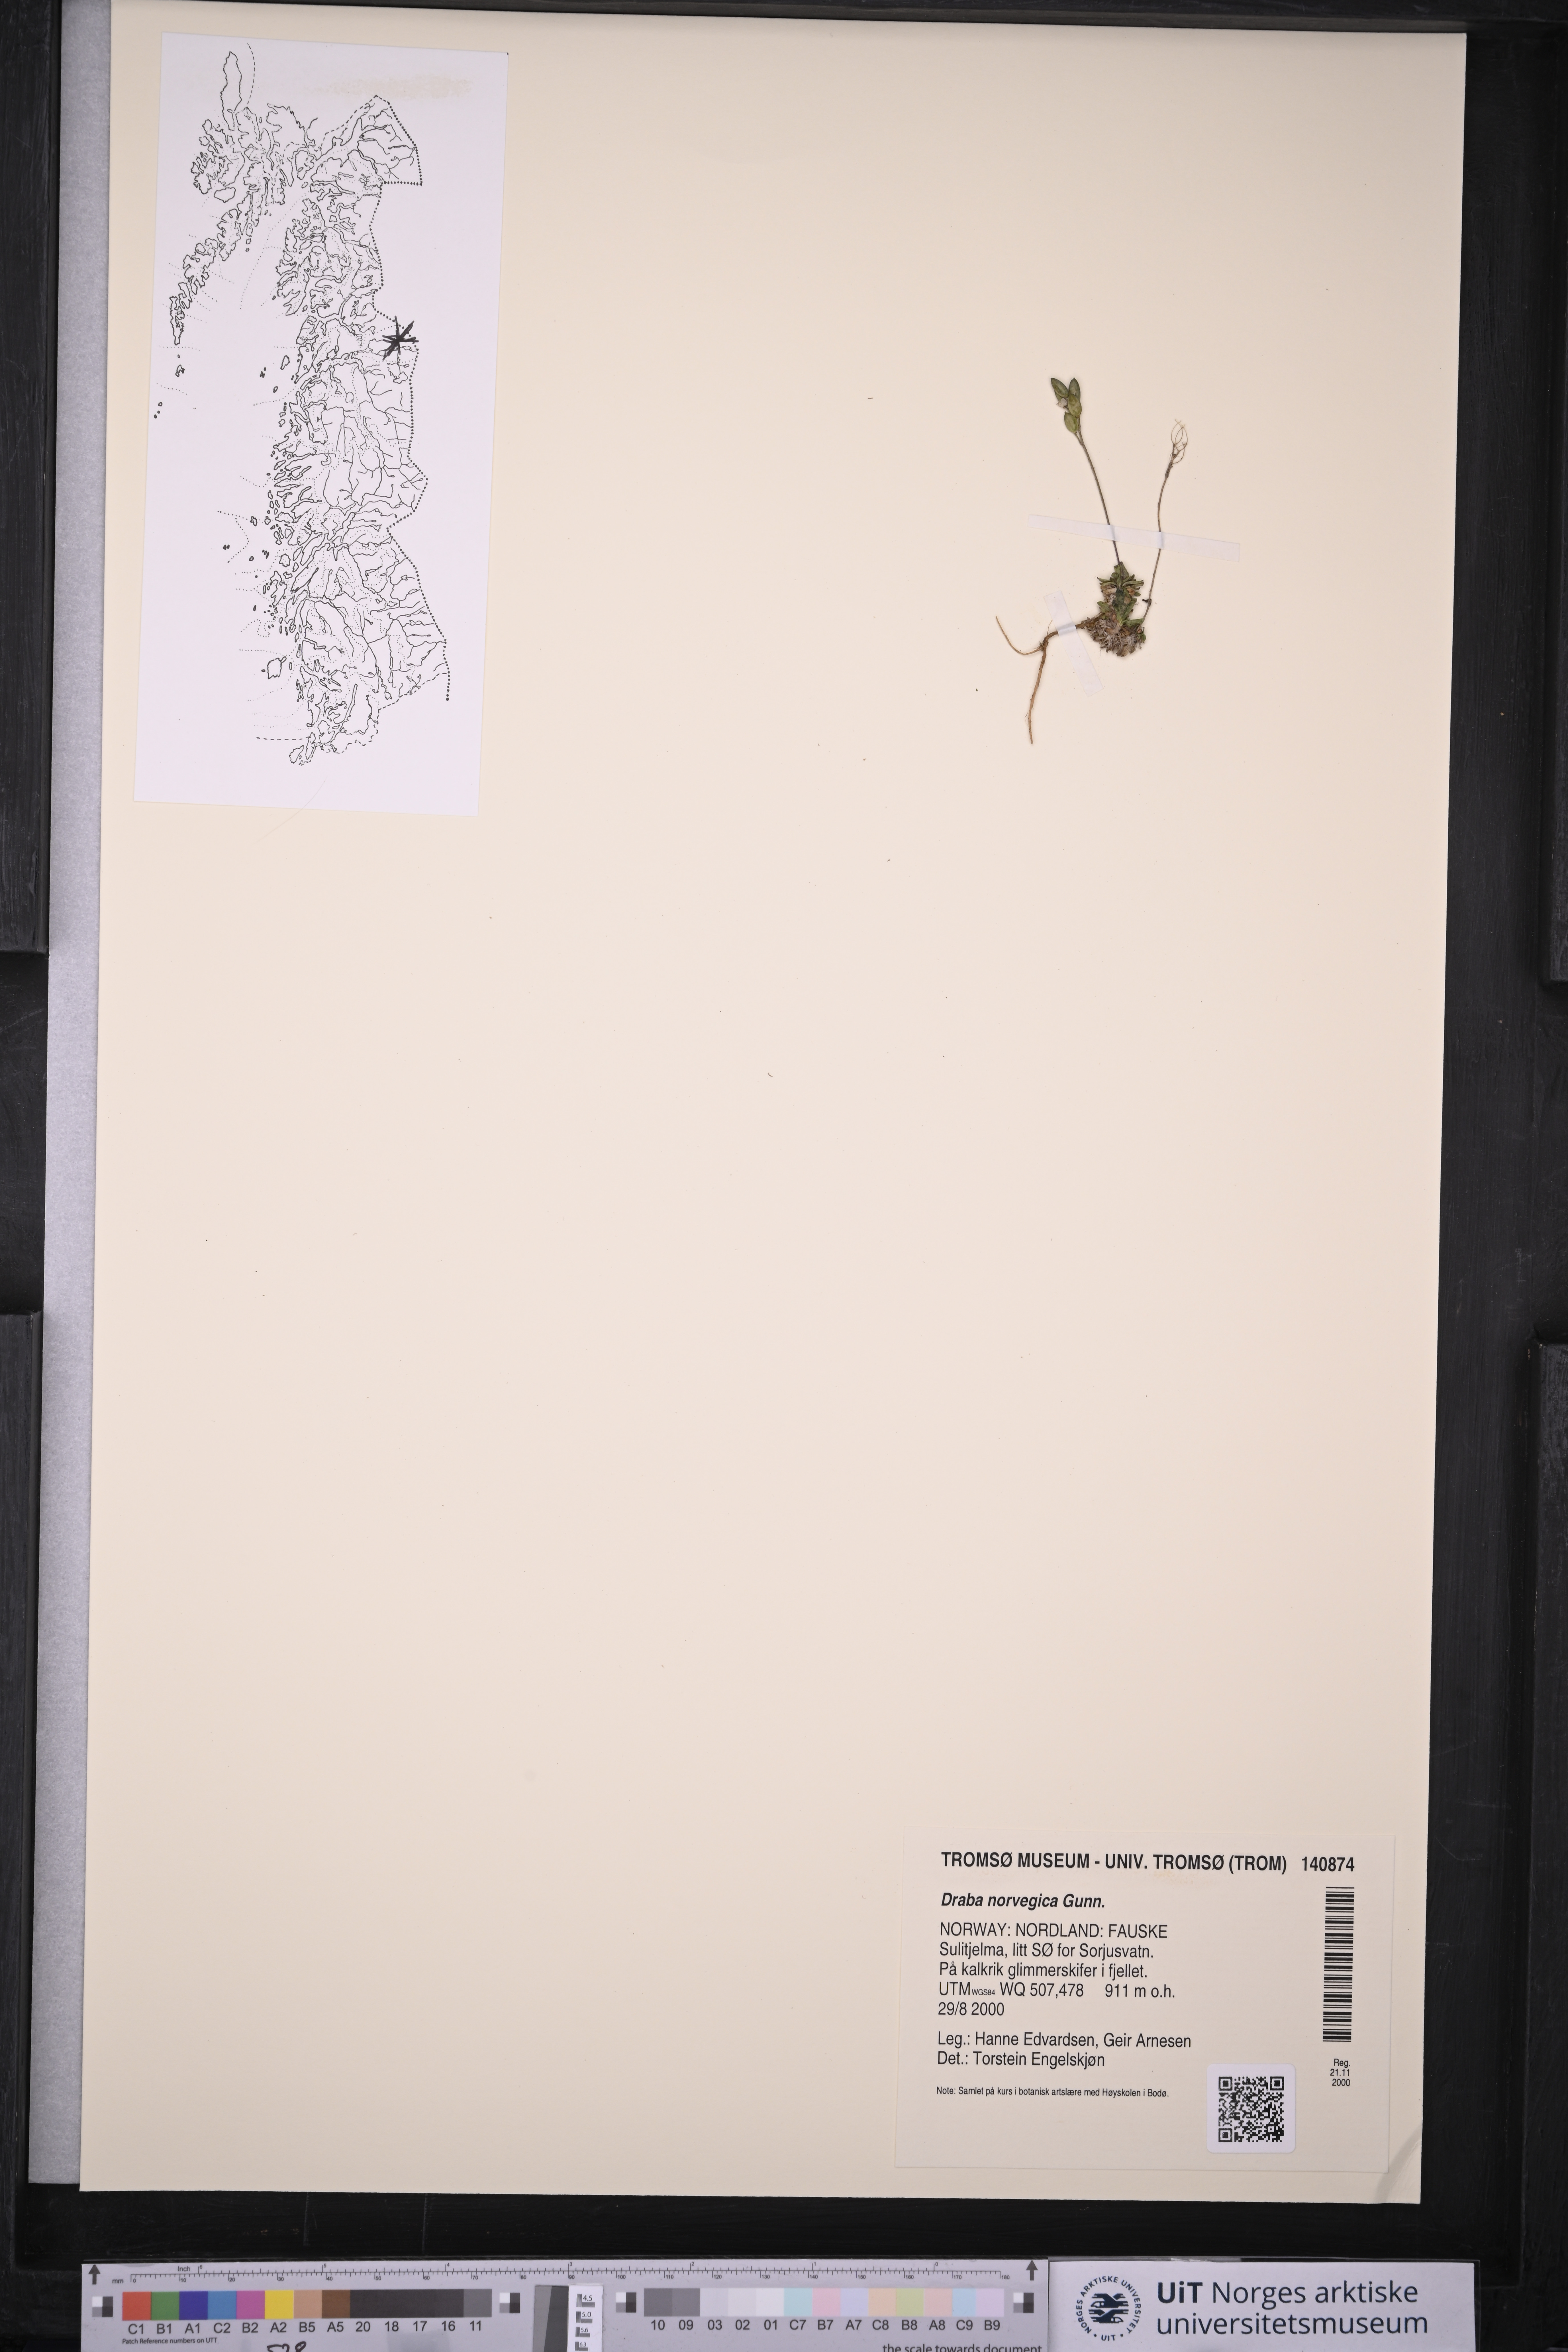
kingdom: Plantae
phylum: Tracheophyta
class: Liliopsida
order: Poales
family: Cyperaceae
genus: Carex
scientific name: Carex rostrata
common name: Bottle sedge
